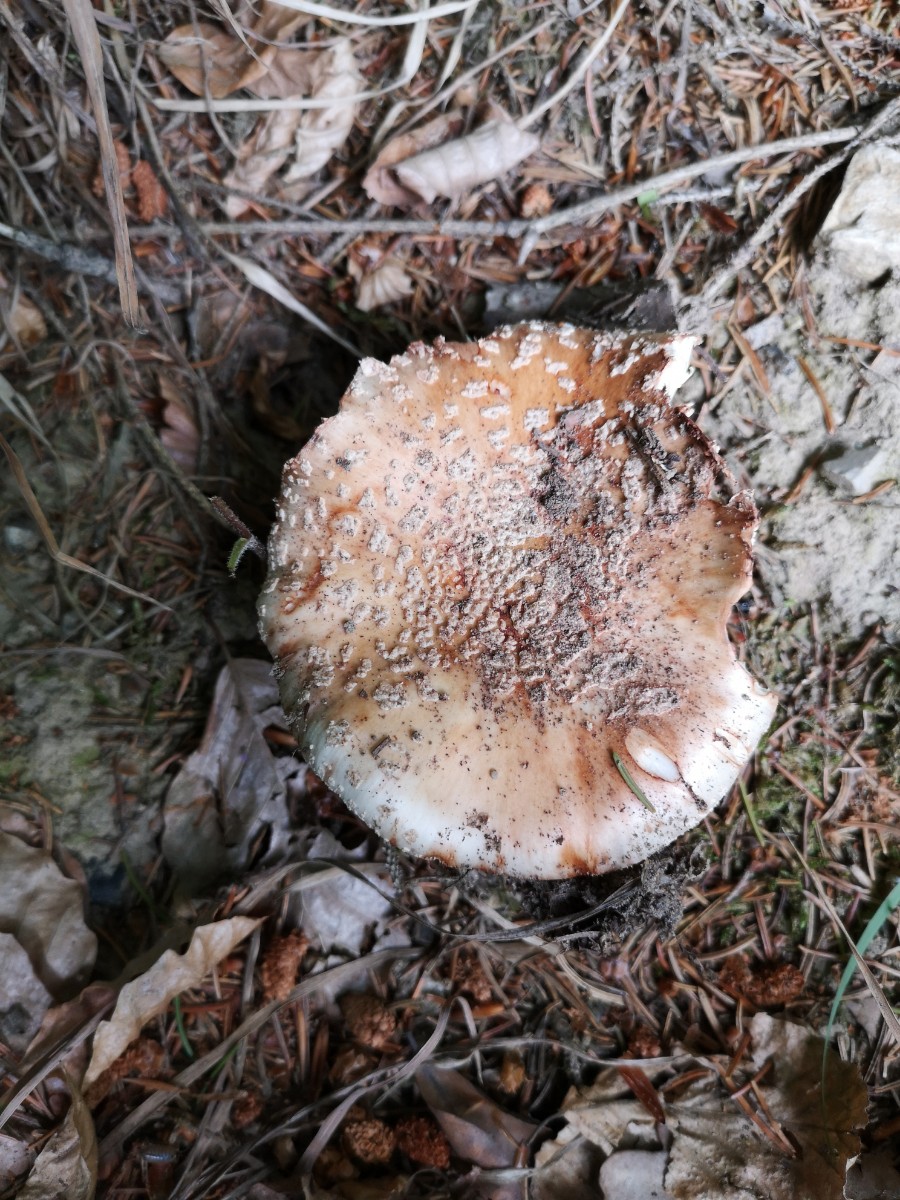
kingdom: Fungi
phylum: Basidiomycota
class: Agaricomycetes
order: Agaricales
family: Amanitaceae
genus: Amanita
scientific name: Amanita rubescens
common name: rødmende fluesvamp
